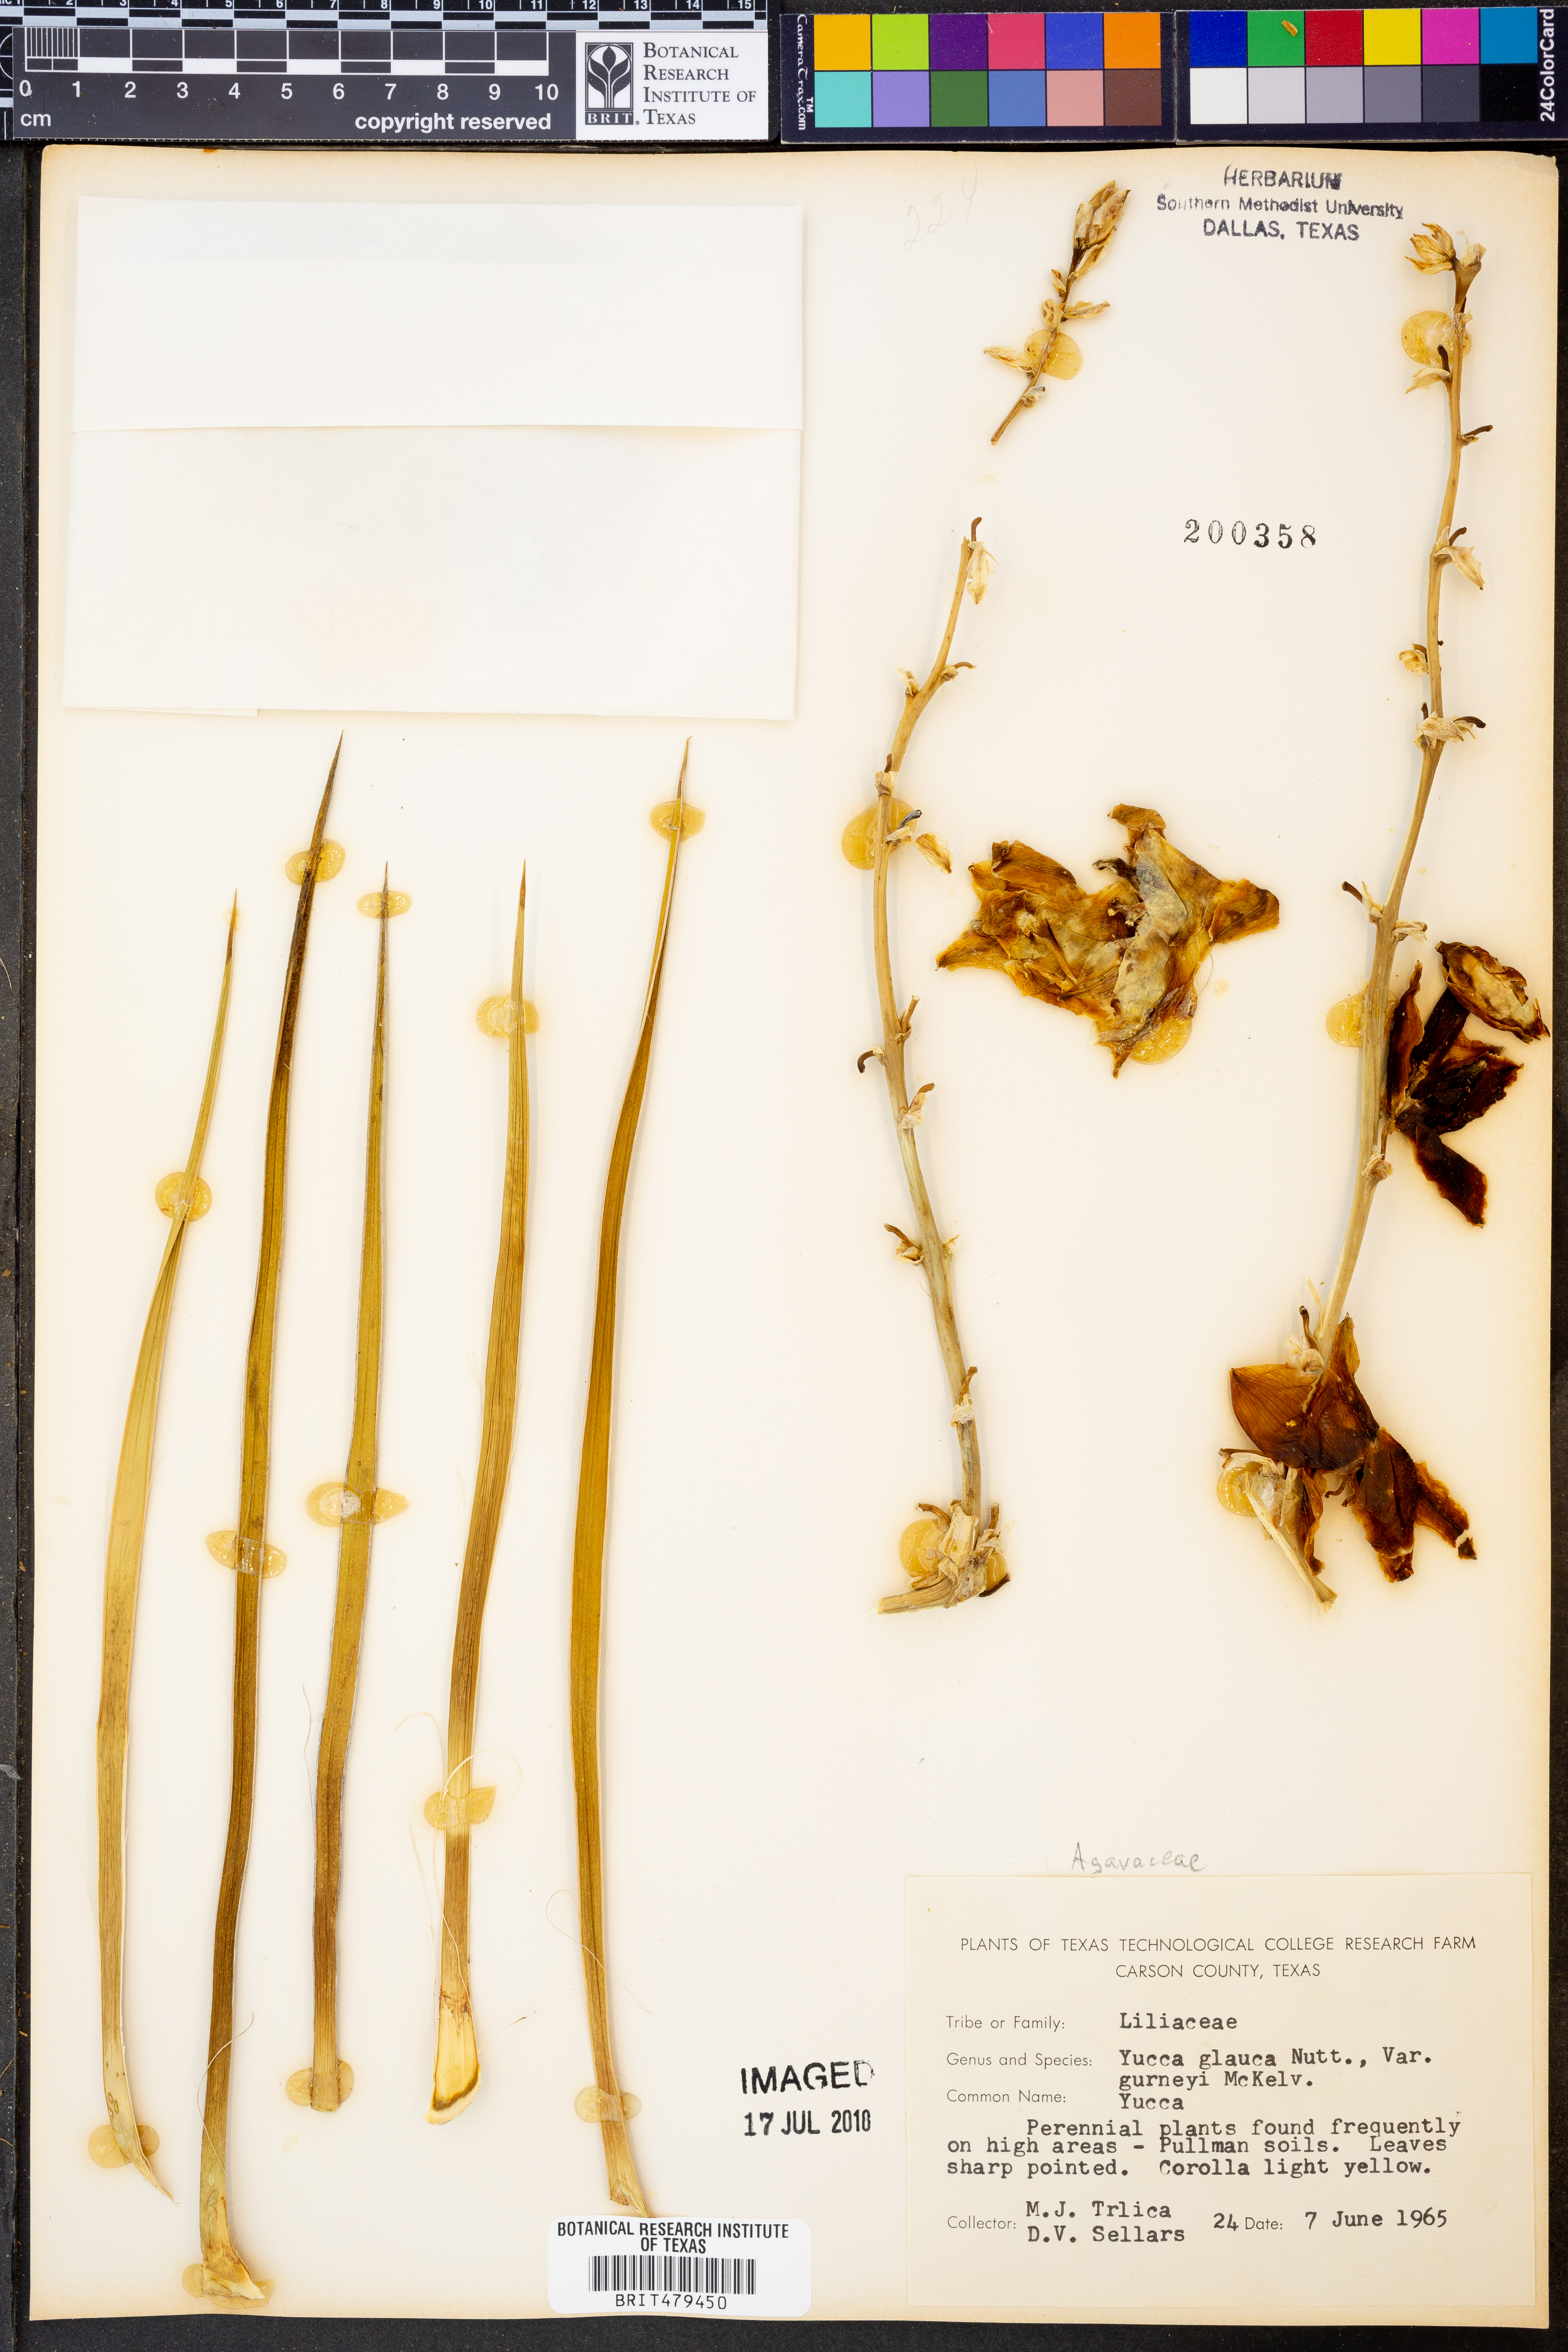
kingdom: Plantae
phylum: Tracheophyta
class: Liliopsida
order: Asparagales
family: Asparagaceae
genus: Yucca
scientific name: Yucca glauca
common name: Great plains yucca
